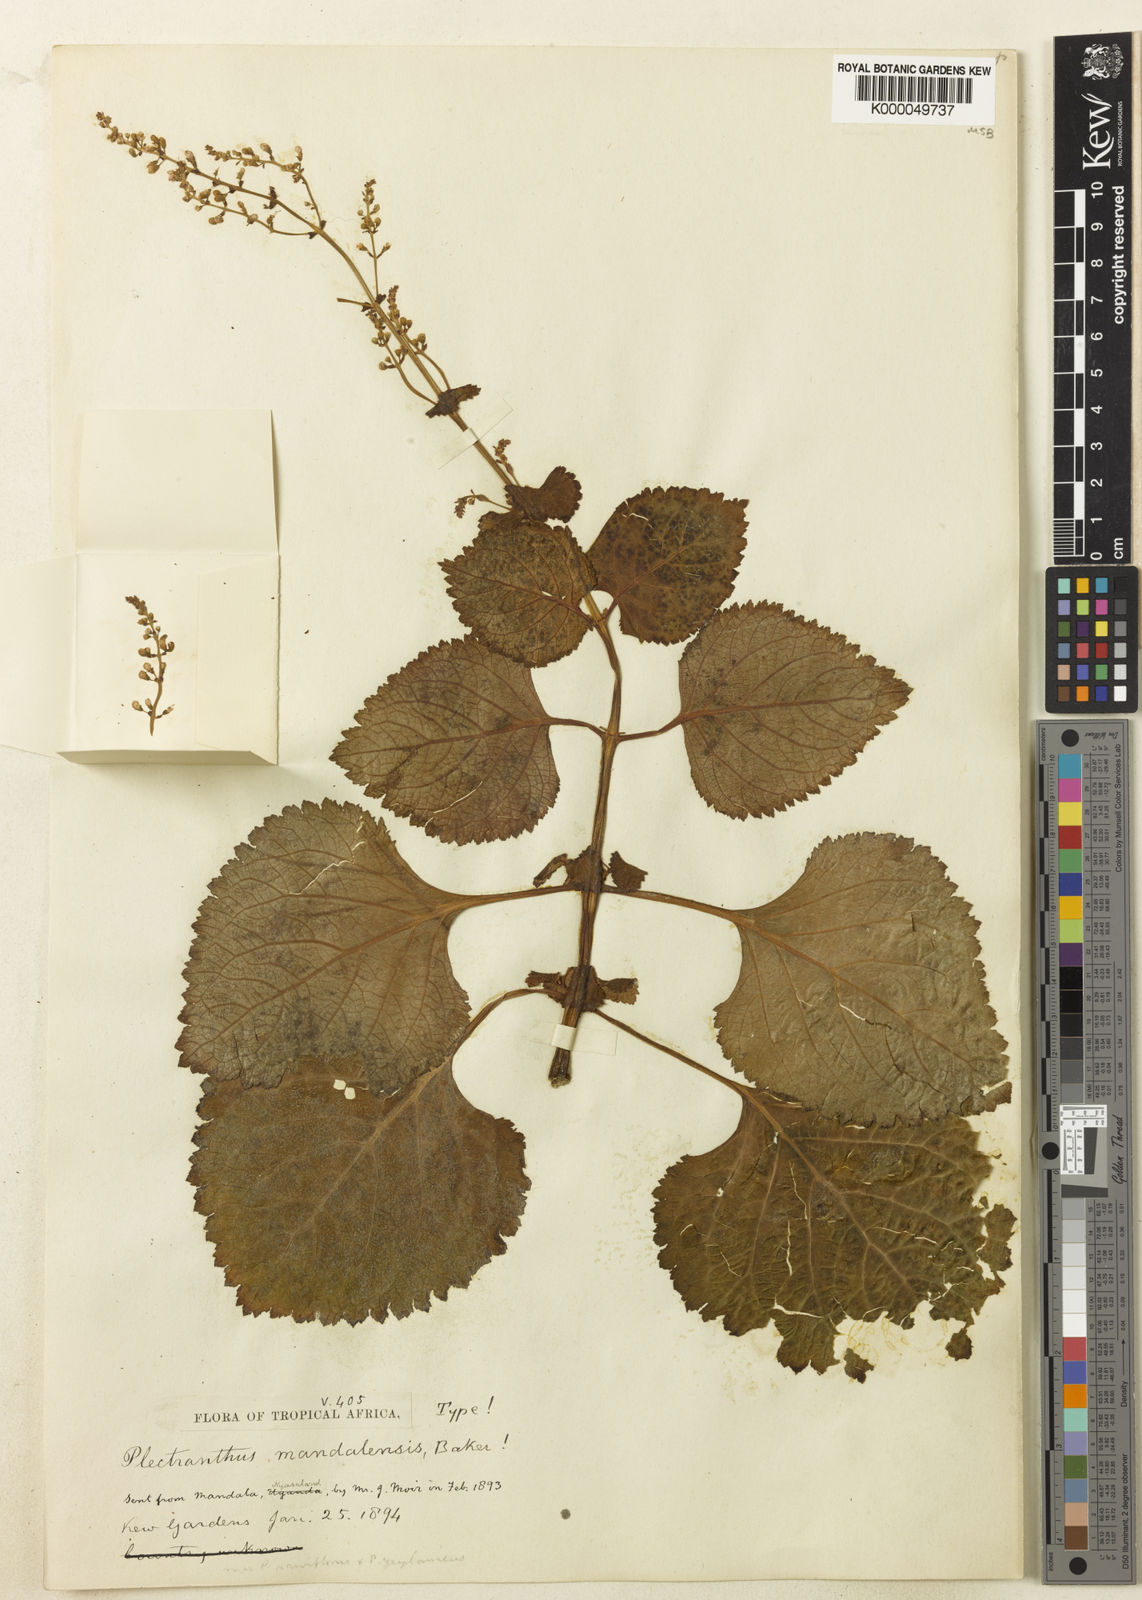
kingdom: Plantae
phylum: Tracheophyta
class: Magnoliopsida
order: Lamiales
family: Lamiaceae
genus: Plectranthus
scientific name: Plectranthus mandalensis
